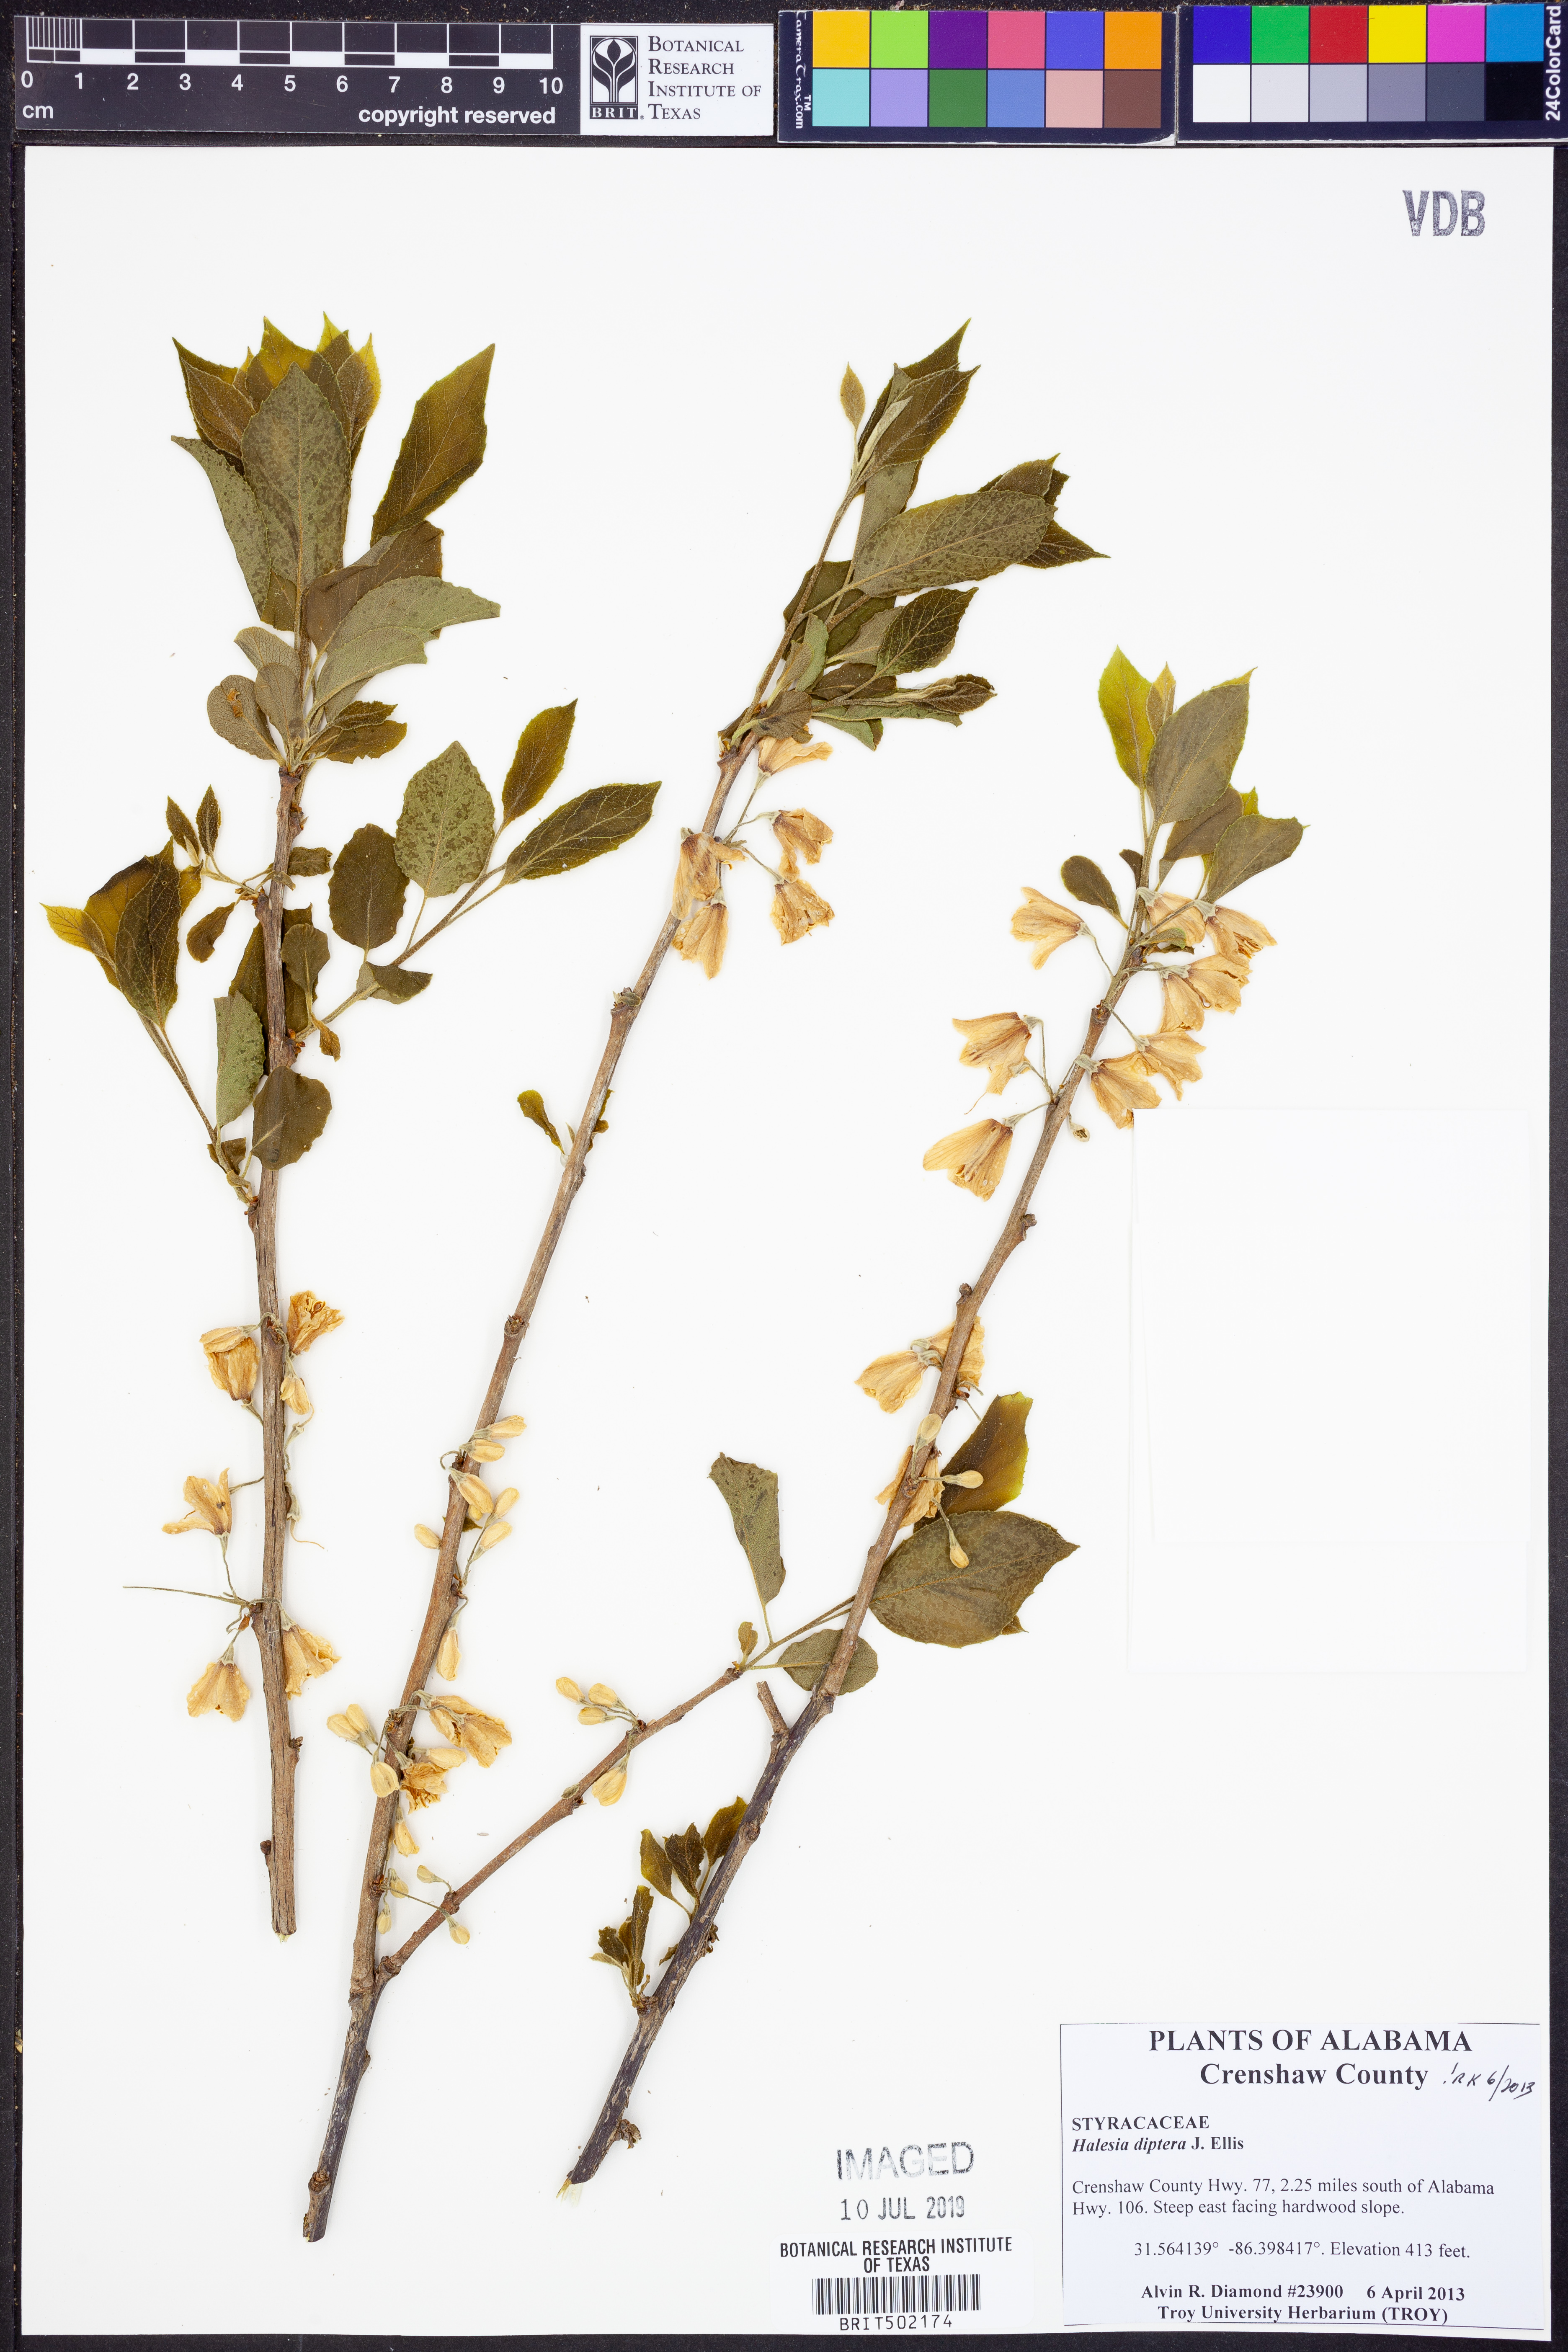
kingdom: Plantae
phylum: Tracheophyta
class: Magnoliopsida
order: Ericales
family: Styracaceae
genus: Halesia
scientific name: Halesia diptera
